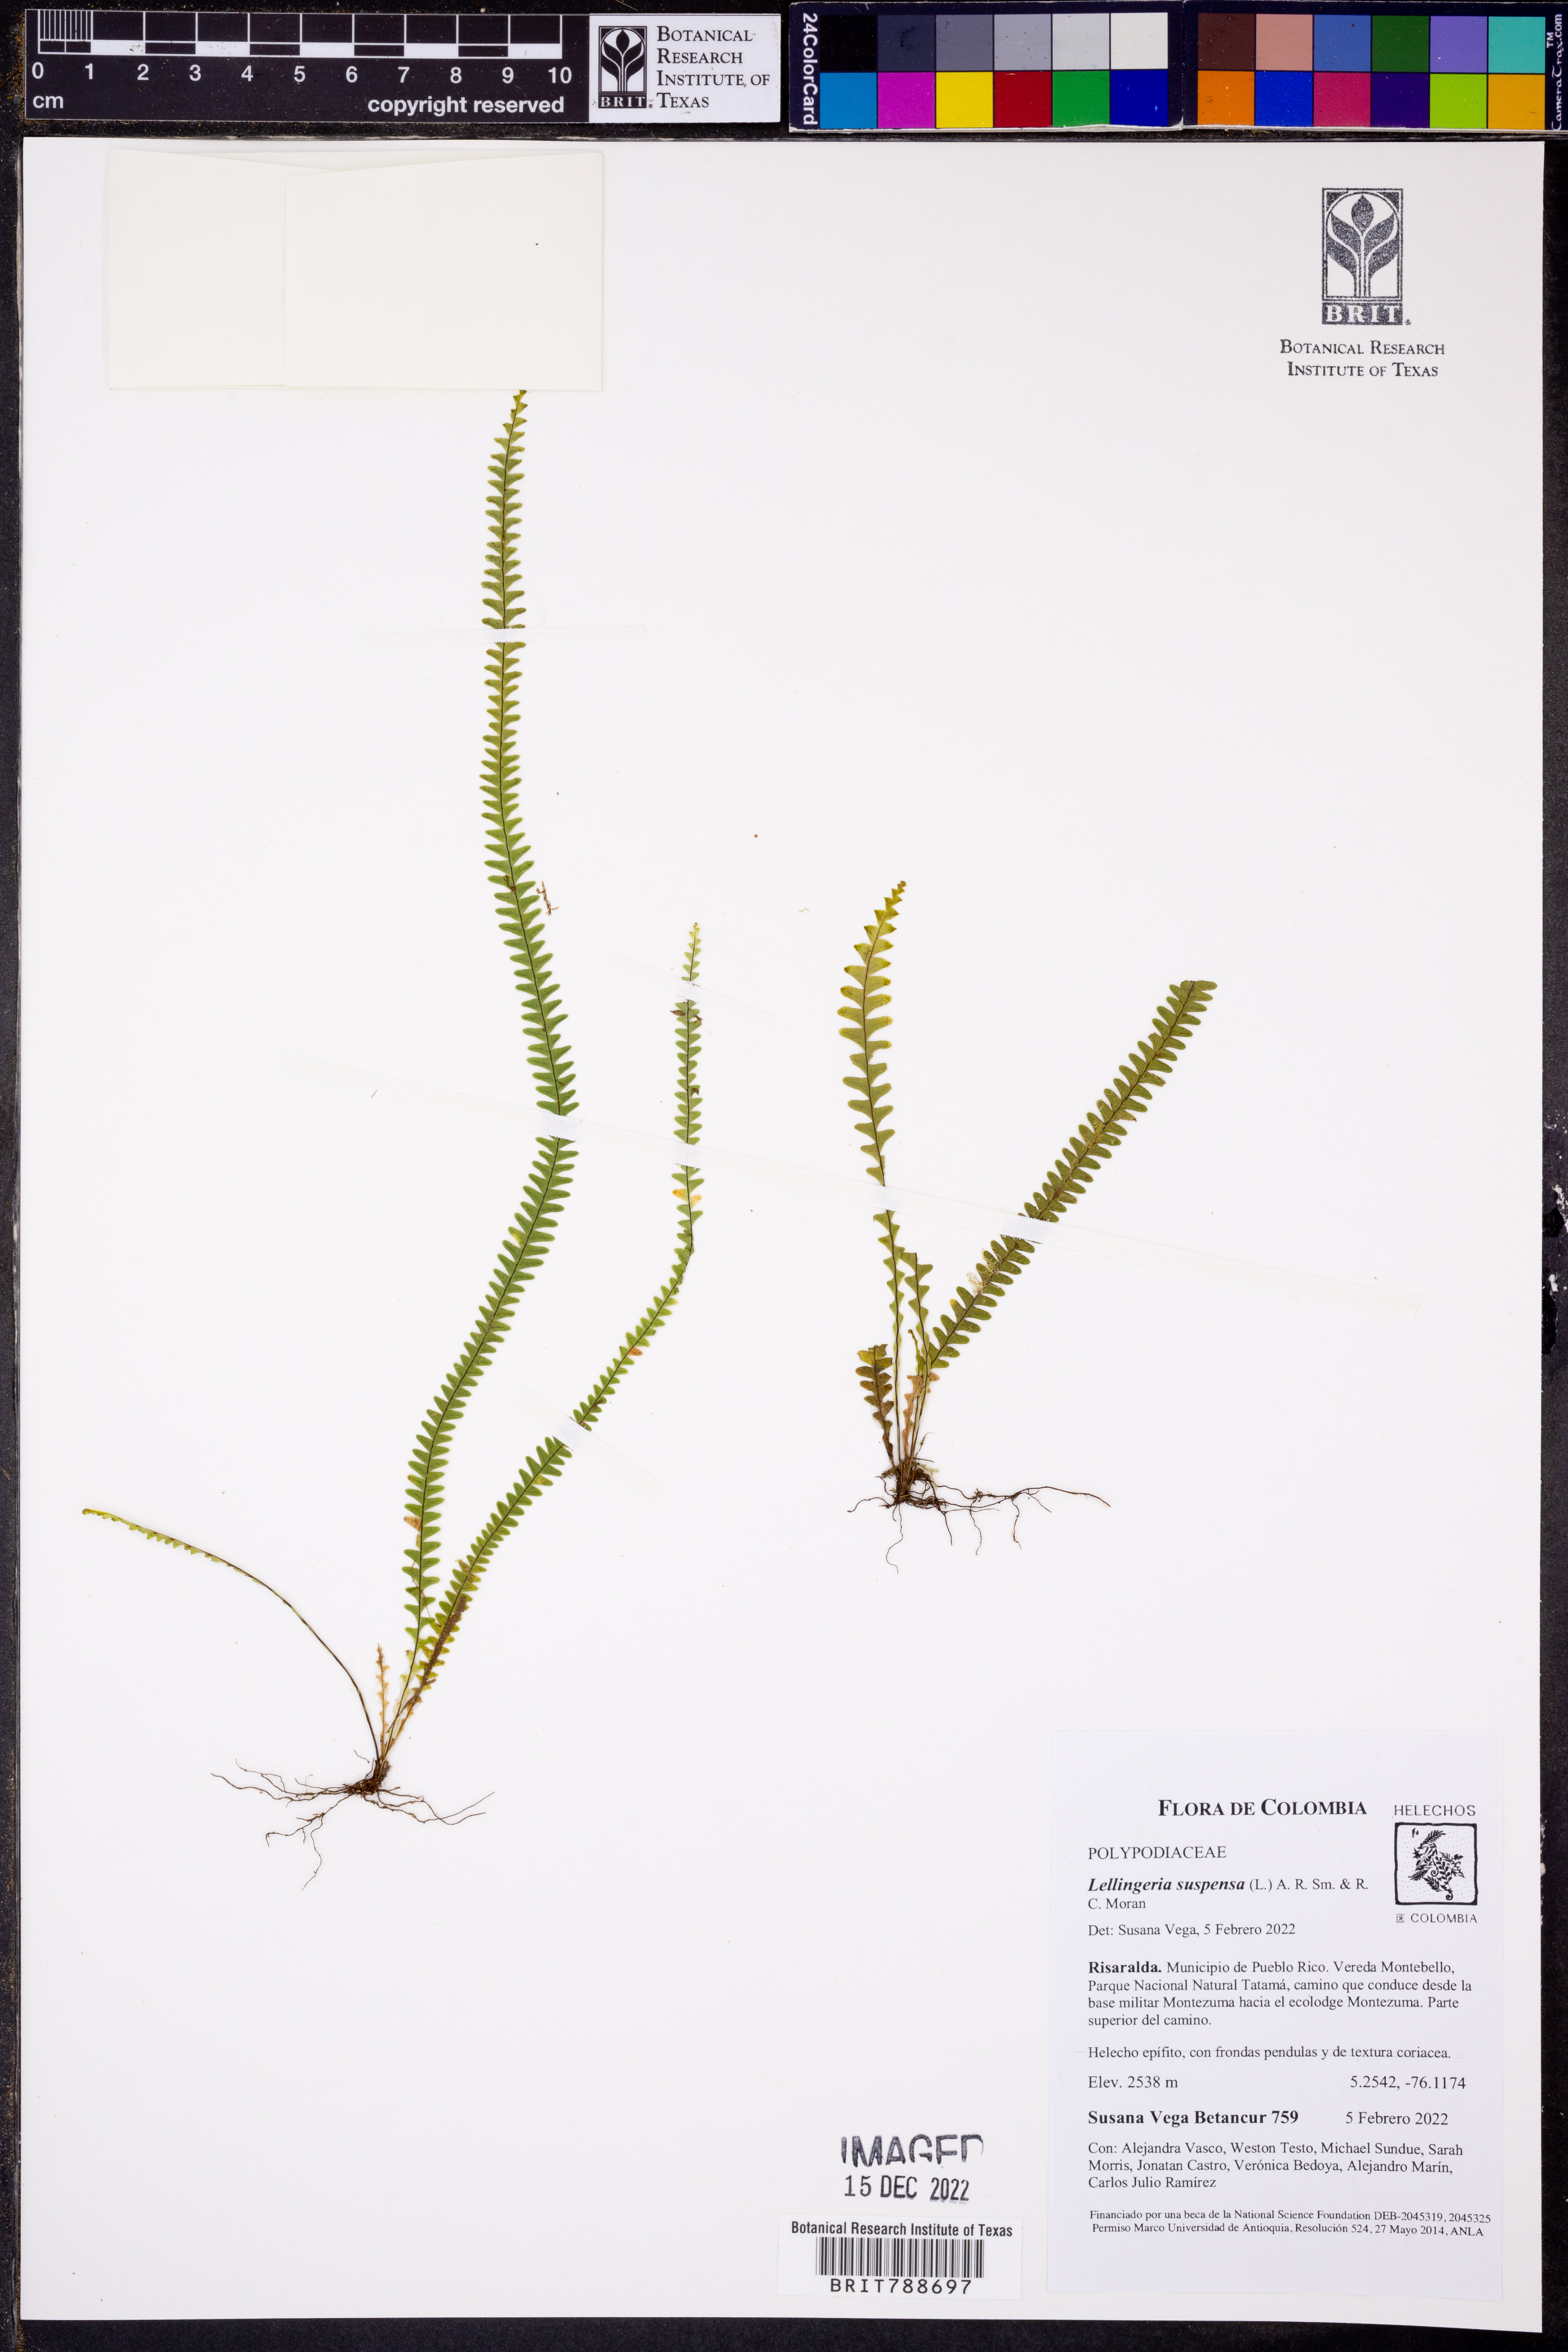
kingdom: Plantae
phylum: Tracheophyta
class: Polypodiopsida
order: Polypodiales
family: Polypodiaceae
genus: Lellingeria
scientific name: Lellingeria suspensa
